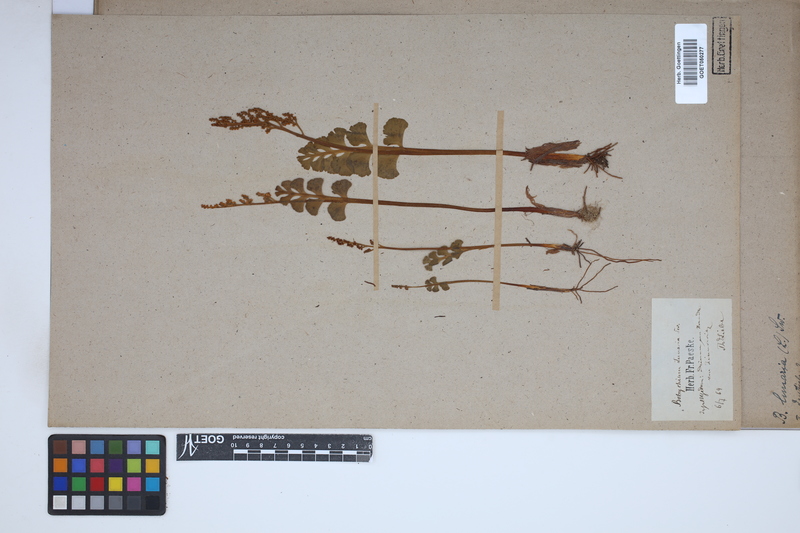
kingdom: Plantae
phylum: Tracheophyta
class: Polypodiopsida
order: Ophioglossales
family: Ophioglossaceae
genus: Botrychium
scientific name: Botrychium lunaria
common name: Moonwort
